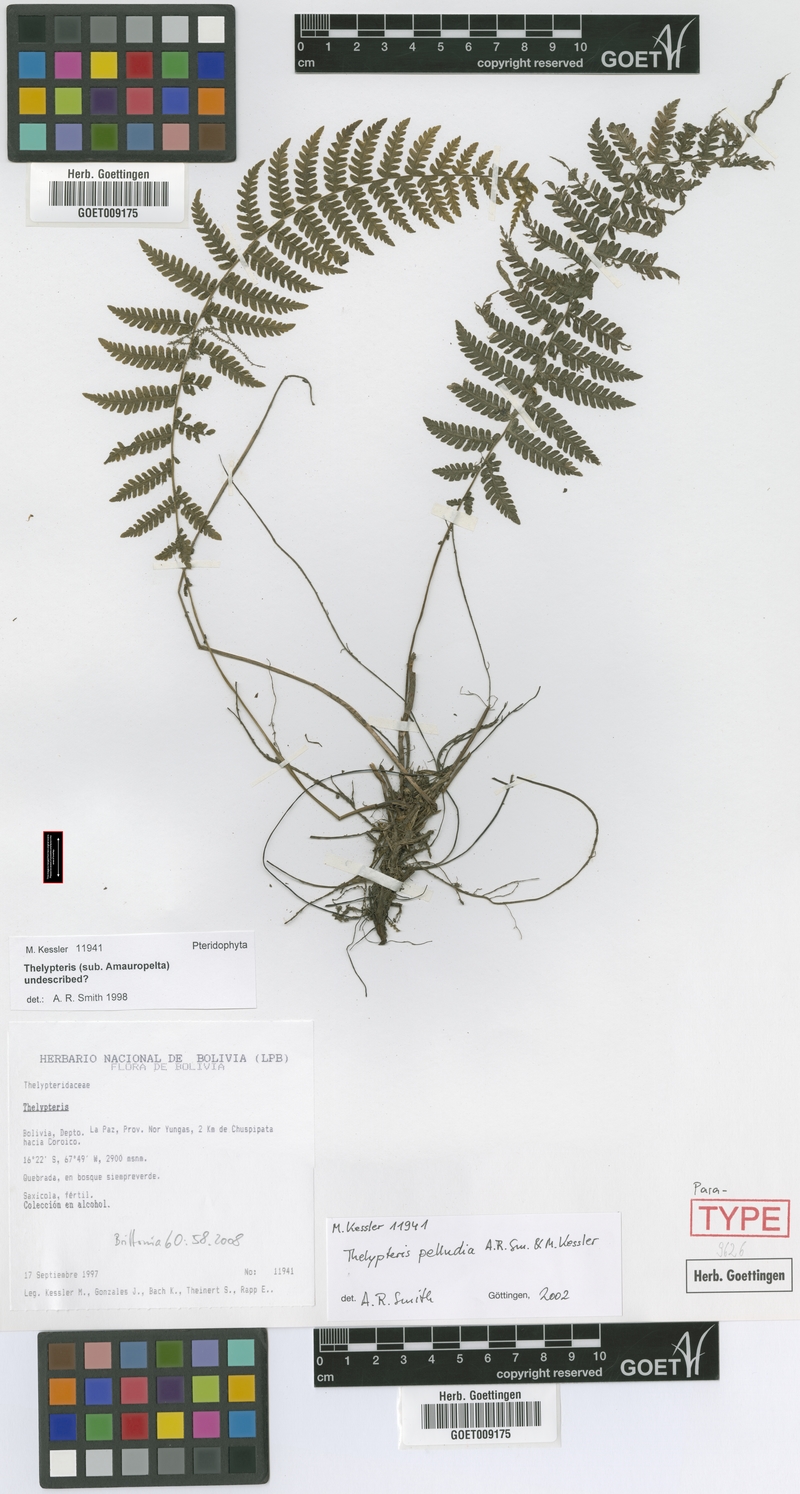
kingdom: Plantae
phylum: Tracheophyta
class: Polypodiopsida
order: Polypodiales
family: Thelypteridaceae
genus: Amauropelta
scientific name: Amauropelta pelludia
